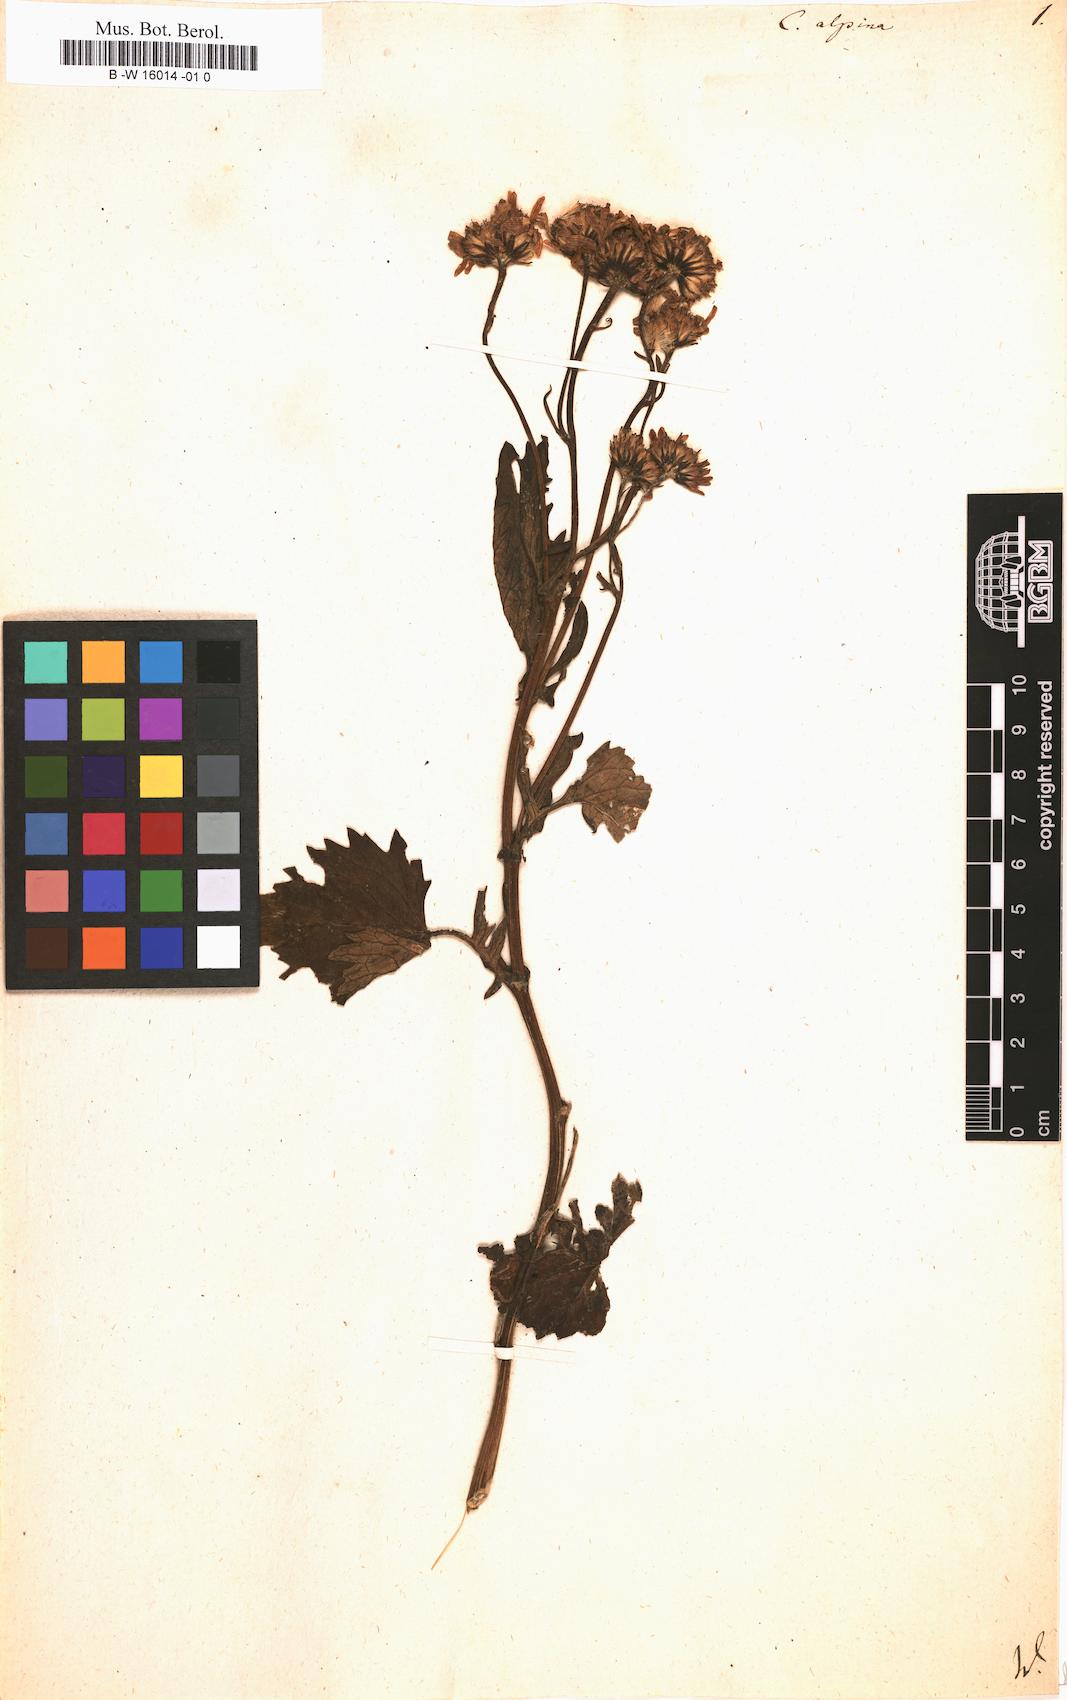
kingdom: Plantae
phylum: Tracheophyta
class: Magnoliopsida
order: Asterales
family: Asteraceae
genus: Jacobaea
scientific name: Jacobaea alpina
